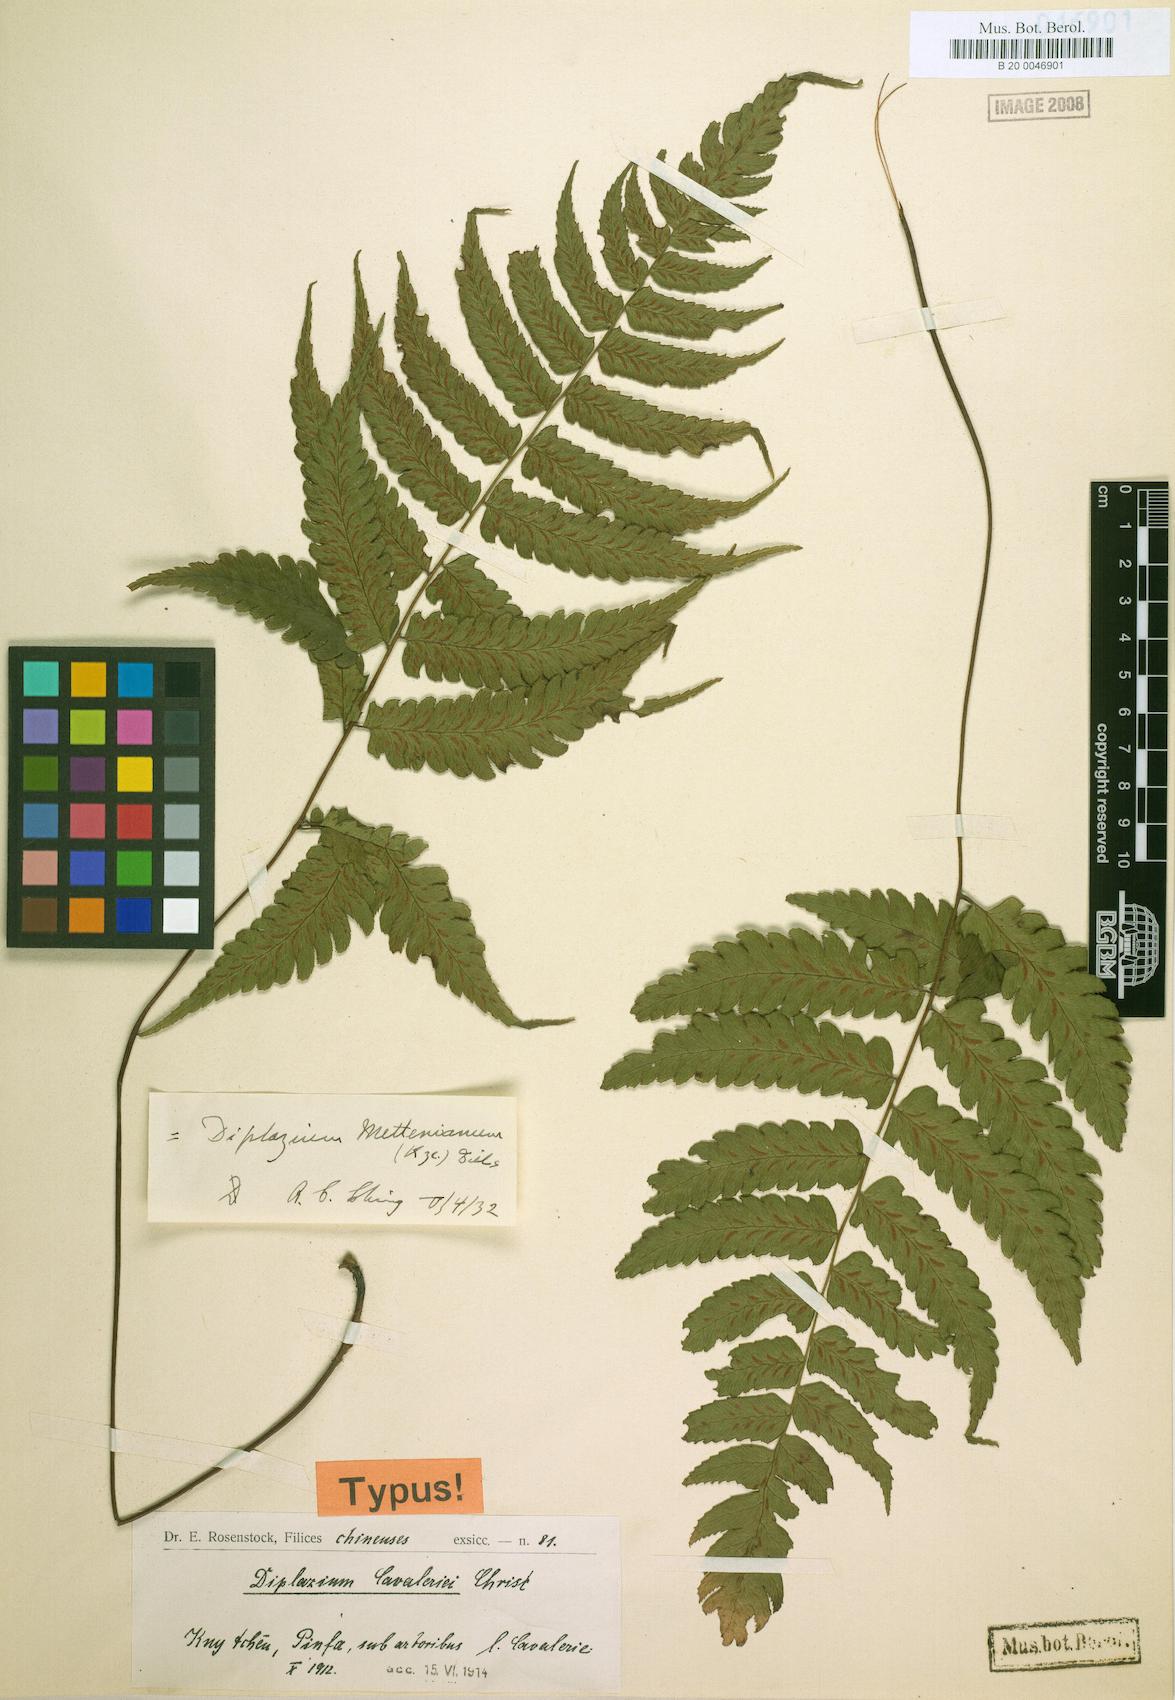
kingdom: Plantae
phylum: Tracheophyta
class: Polypodiopsida
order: Polypodiales
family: Athyriaceae
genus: Diplazium
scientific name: Diplazium mettenianum
